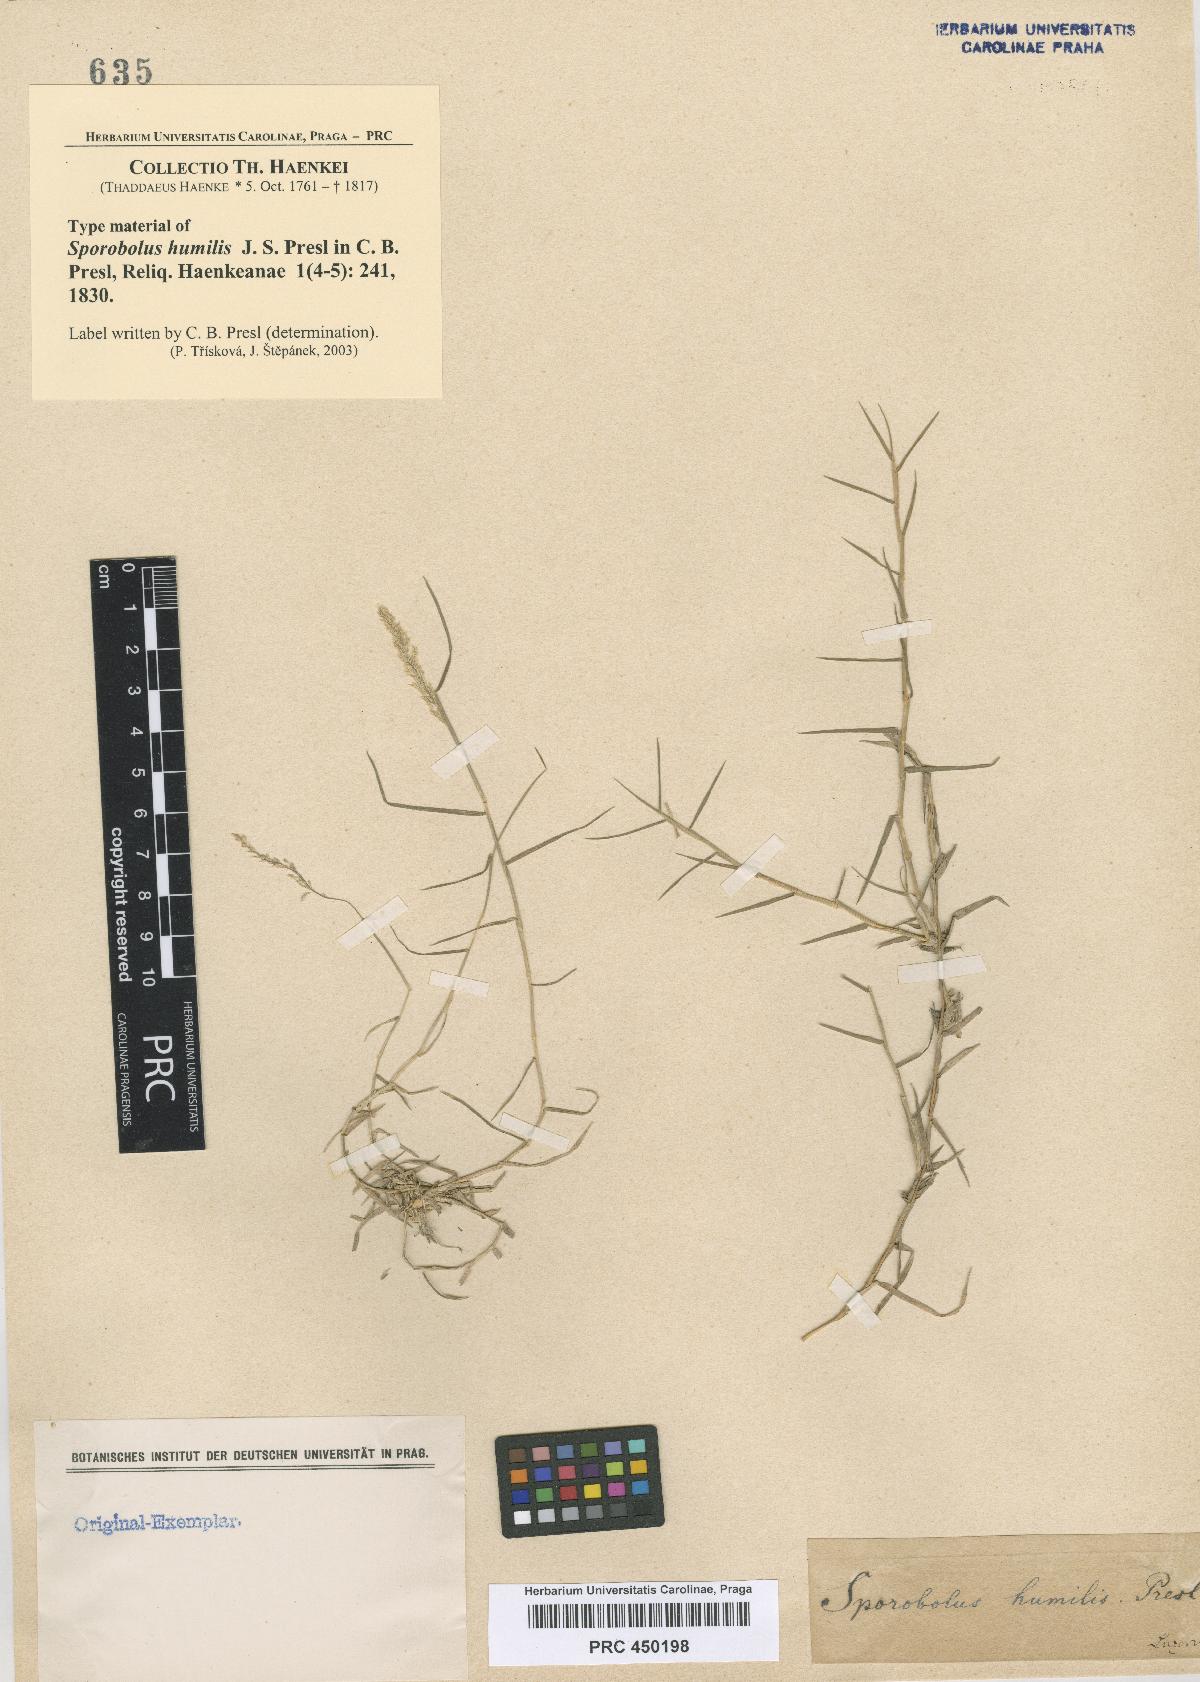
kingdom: Plantae
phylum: Tracheophyta
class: Liliopsida
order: Poales
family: Poaceae
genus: Sporobolus
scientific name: Sporobolus humilis
